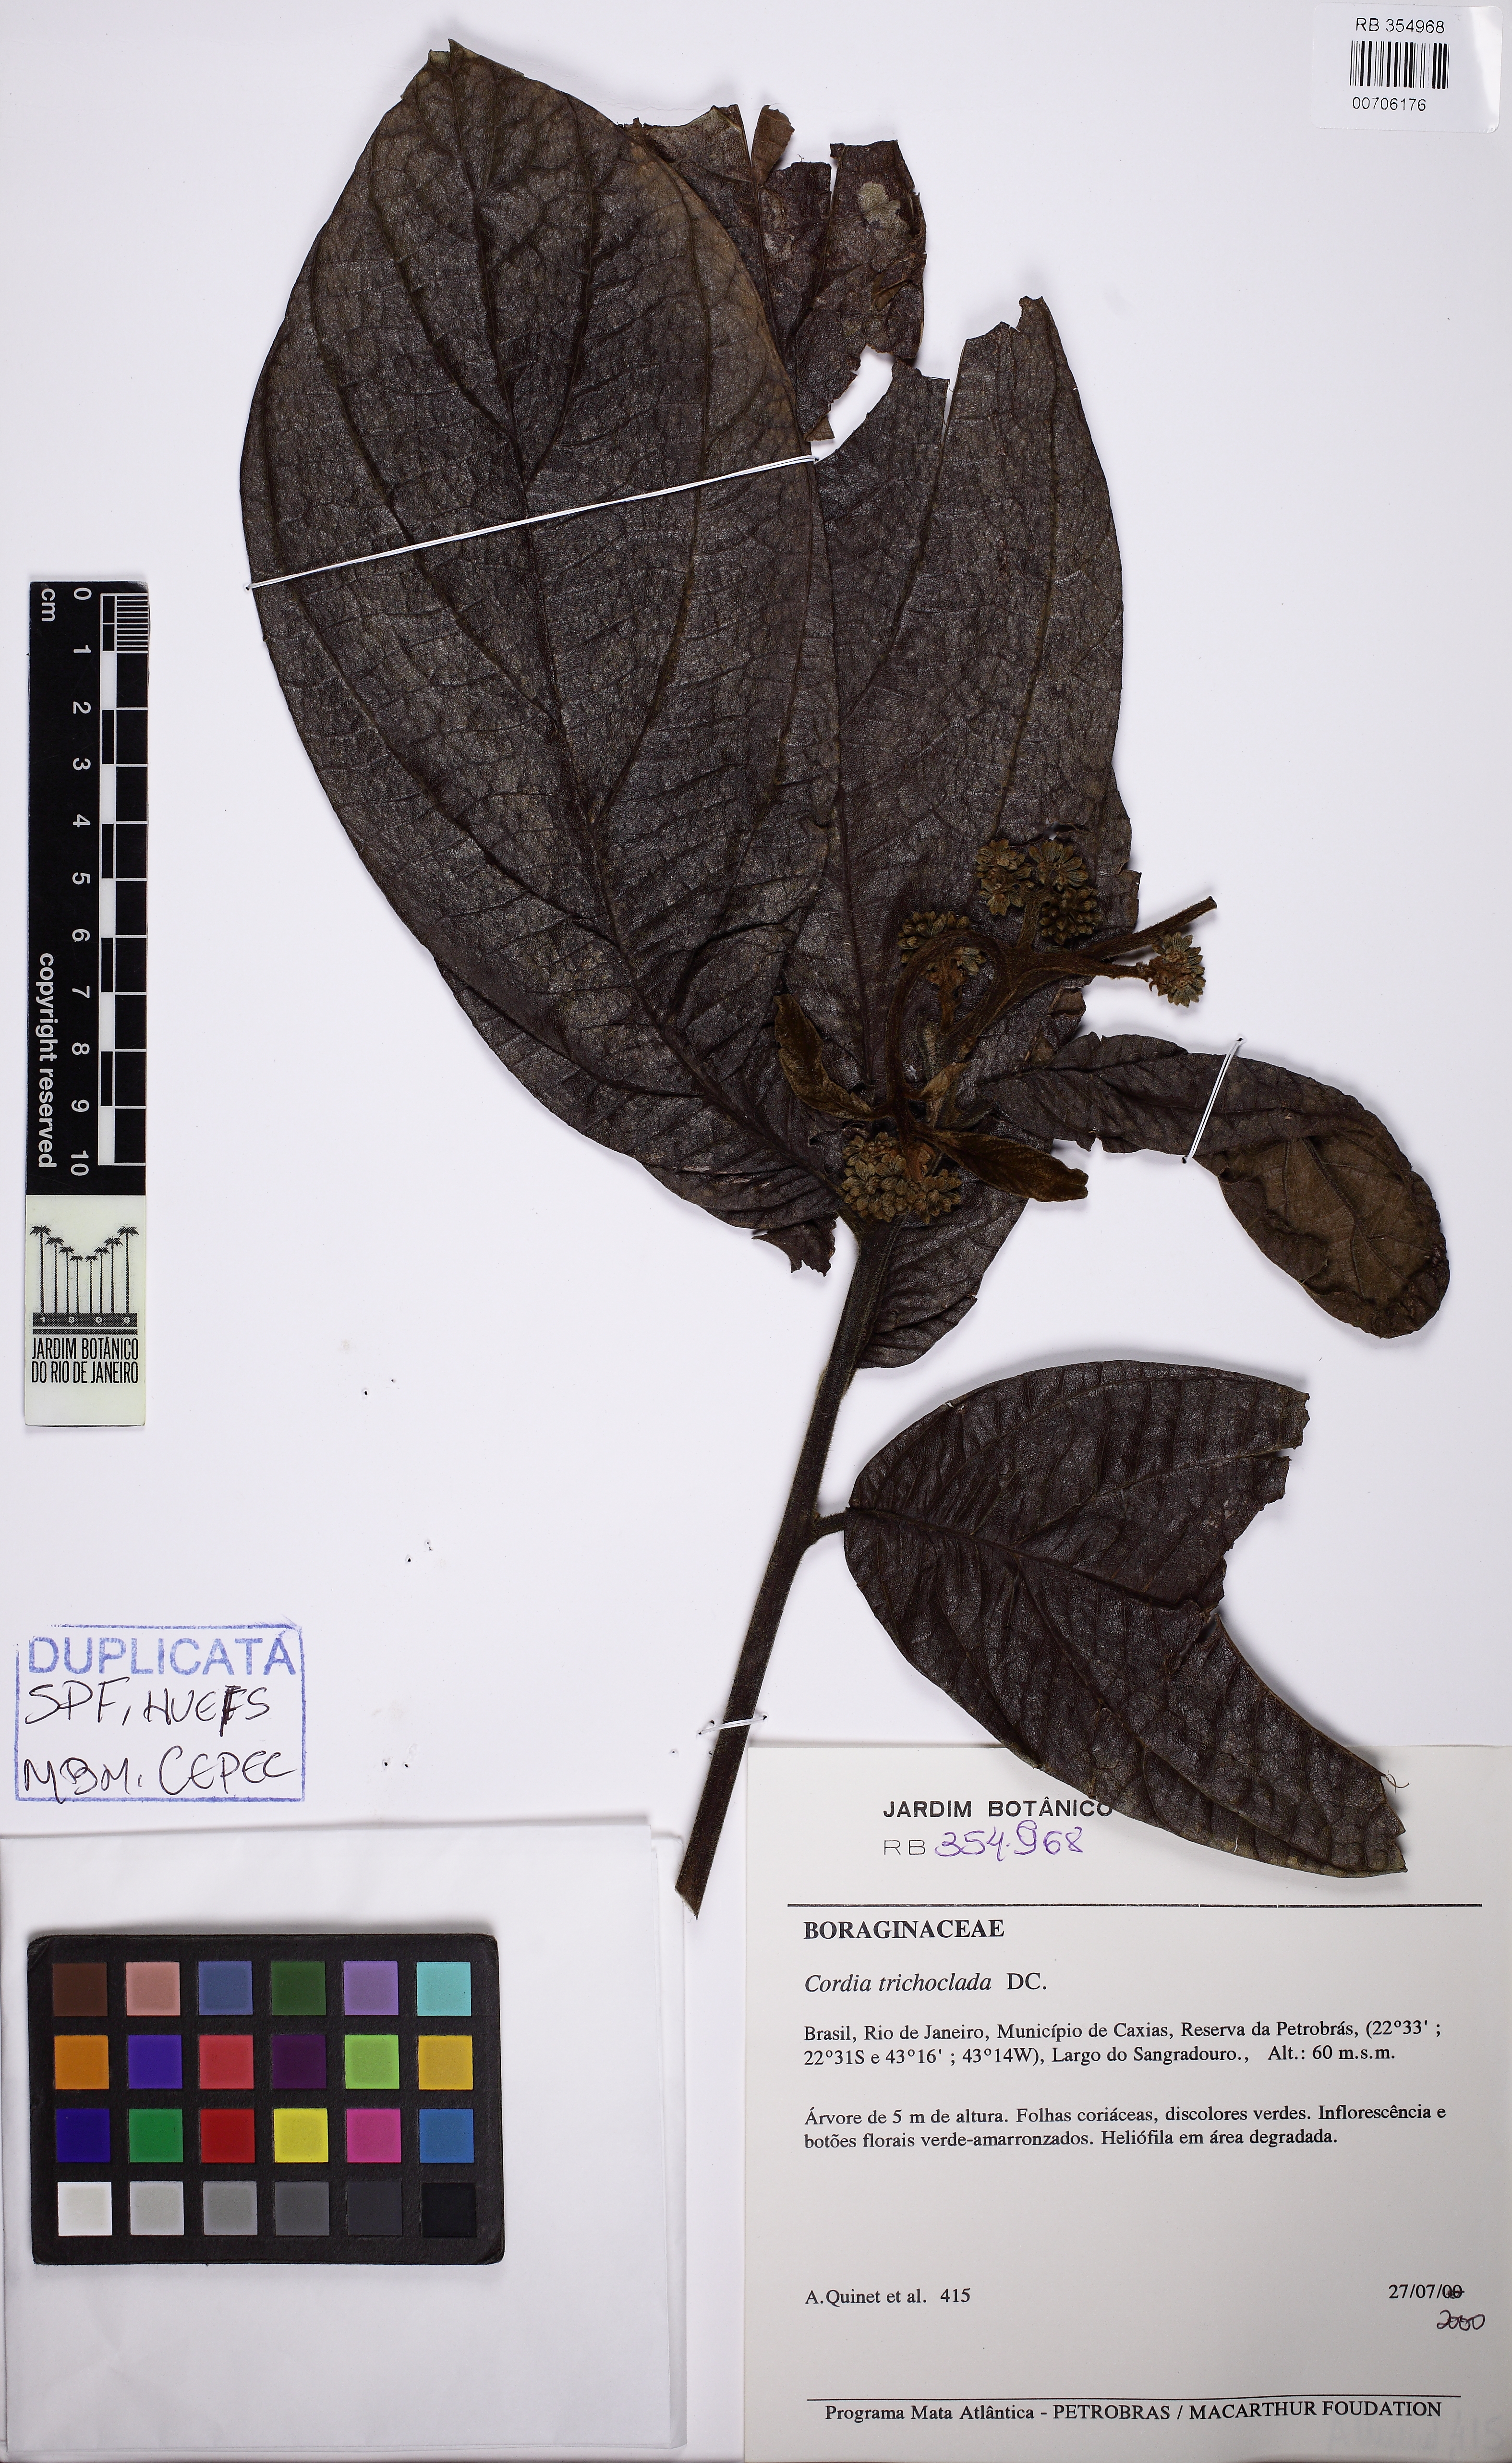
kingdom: Plantae
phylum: Tracheophyta
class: Magnoliopsida
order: Boraginales
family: Cordiaceae
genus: Cordia
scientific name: Cordia trichoclada
